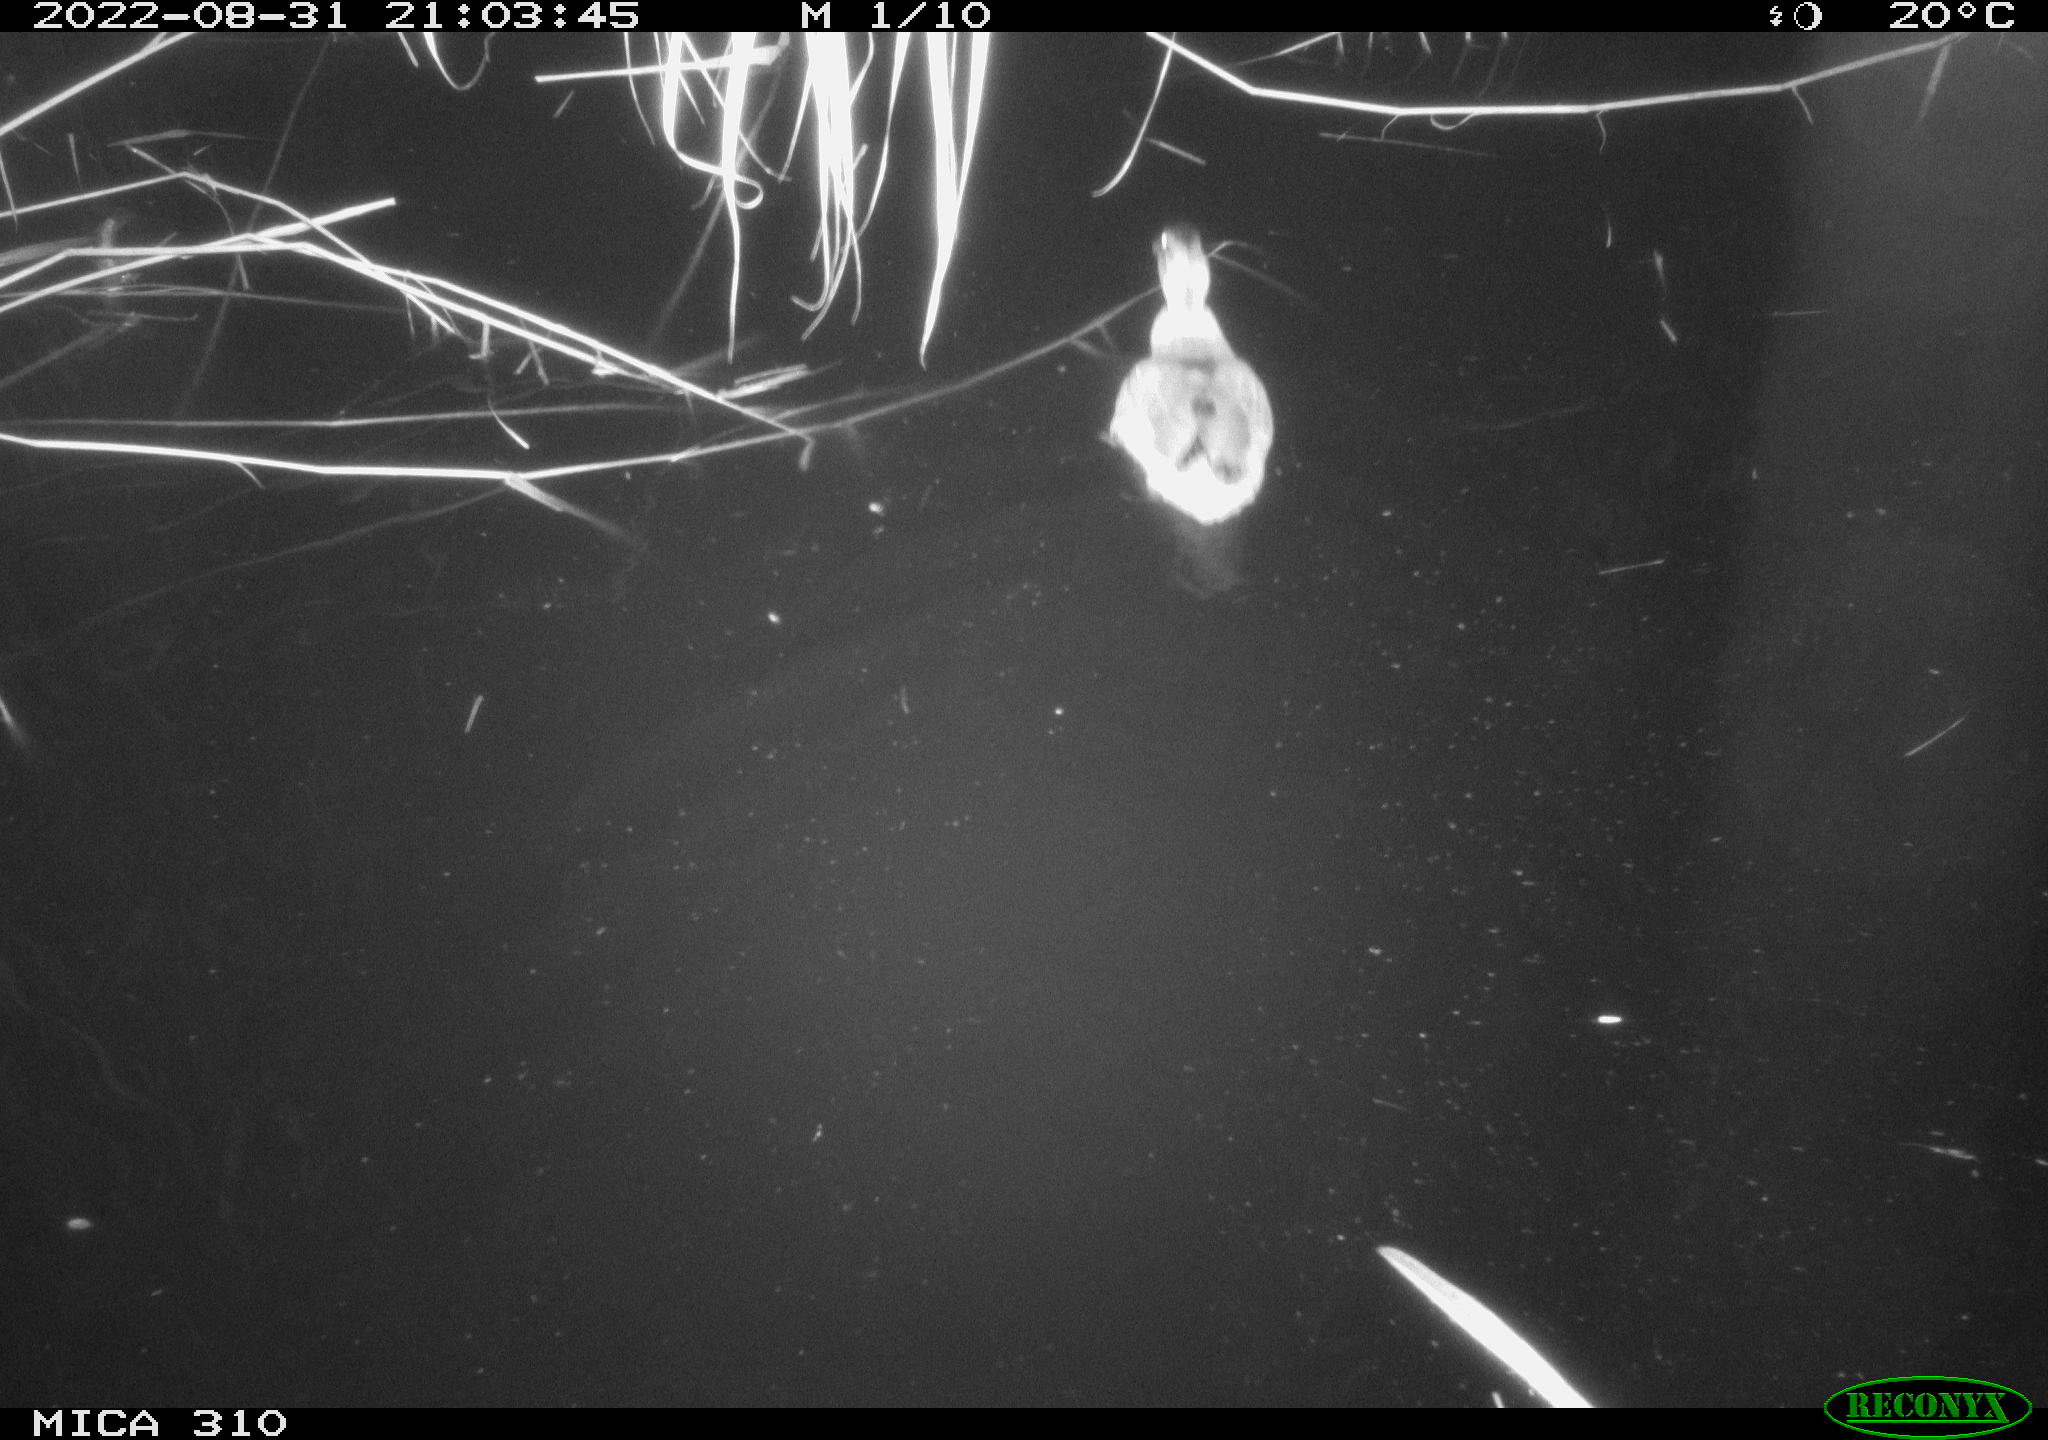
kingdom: Animalia
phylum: Chordata
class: Aves
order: Anseriformes
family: Anatidae
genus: Anas
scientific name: Anas platyrhynchos
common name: Mallard
